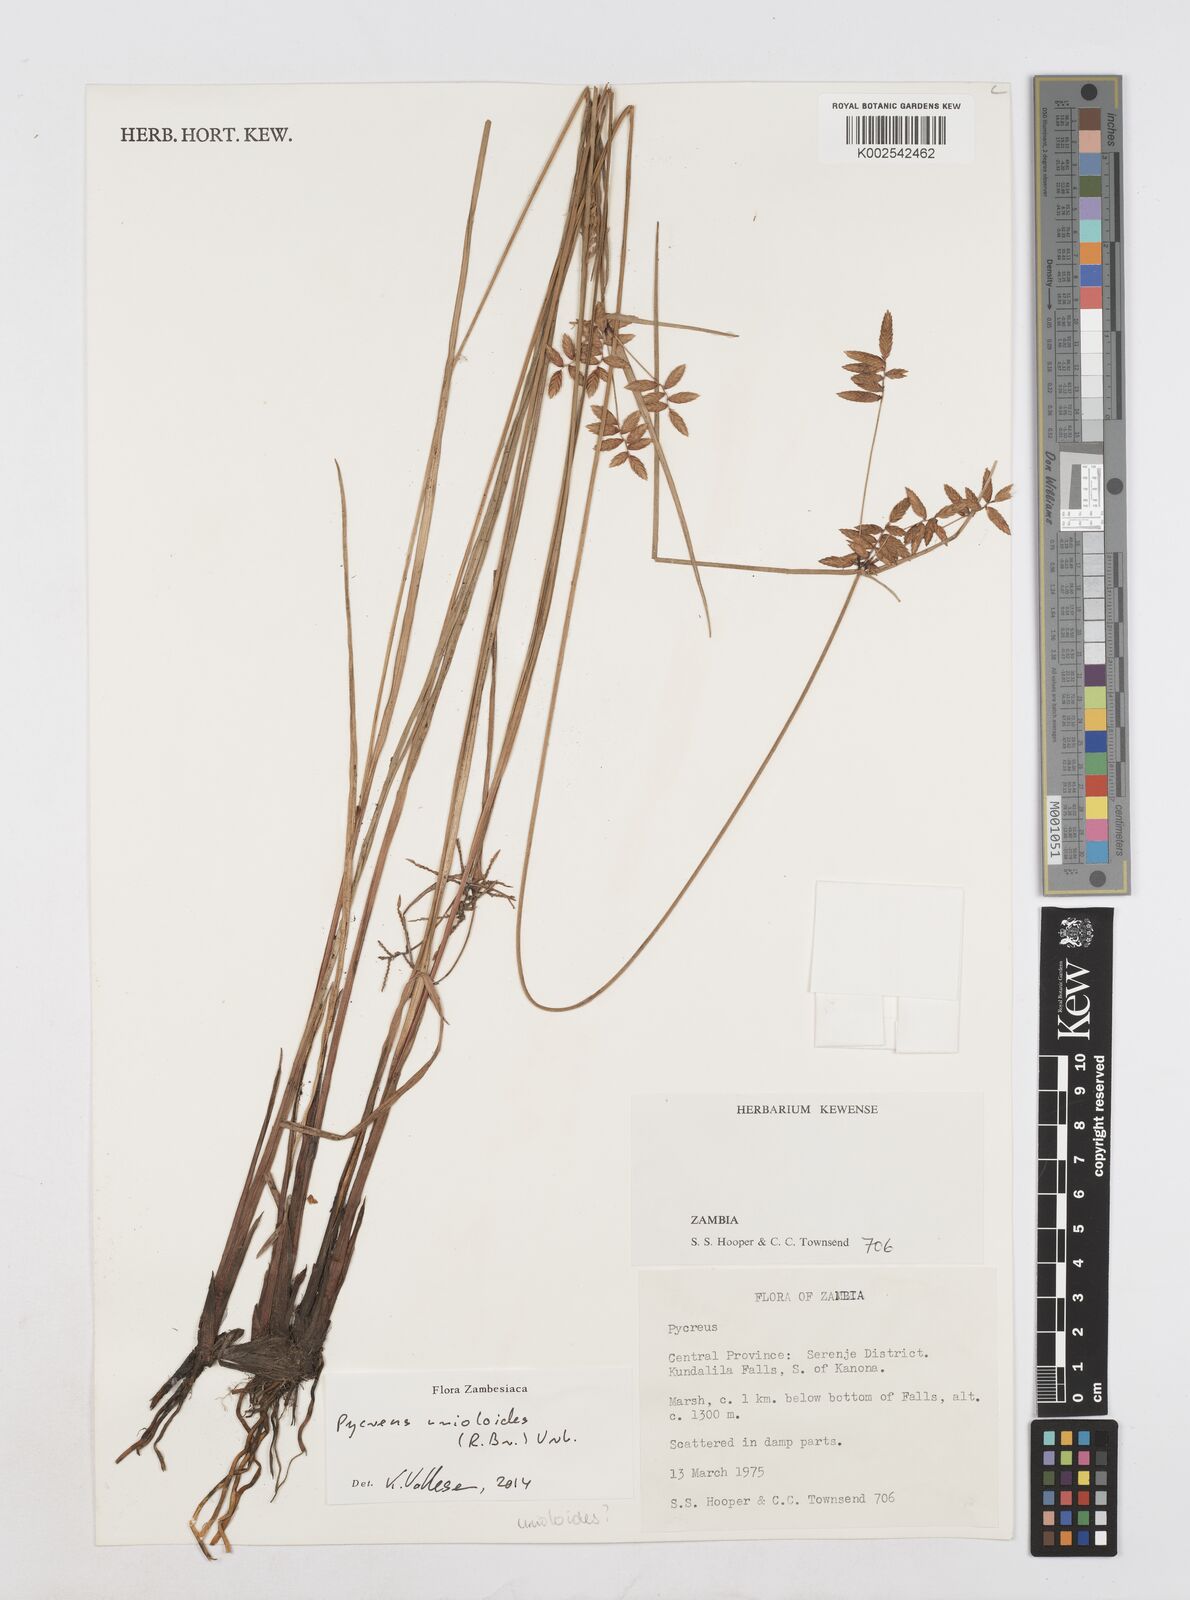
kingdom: Plantae
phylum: Tracheophyta
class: Liliopsida
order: Poales
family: Cyperaceae
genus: Cyperus
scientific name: Cyperus unioloides
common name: Uniola flatsedge
